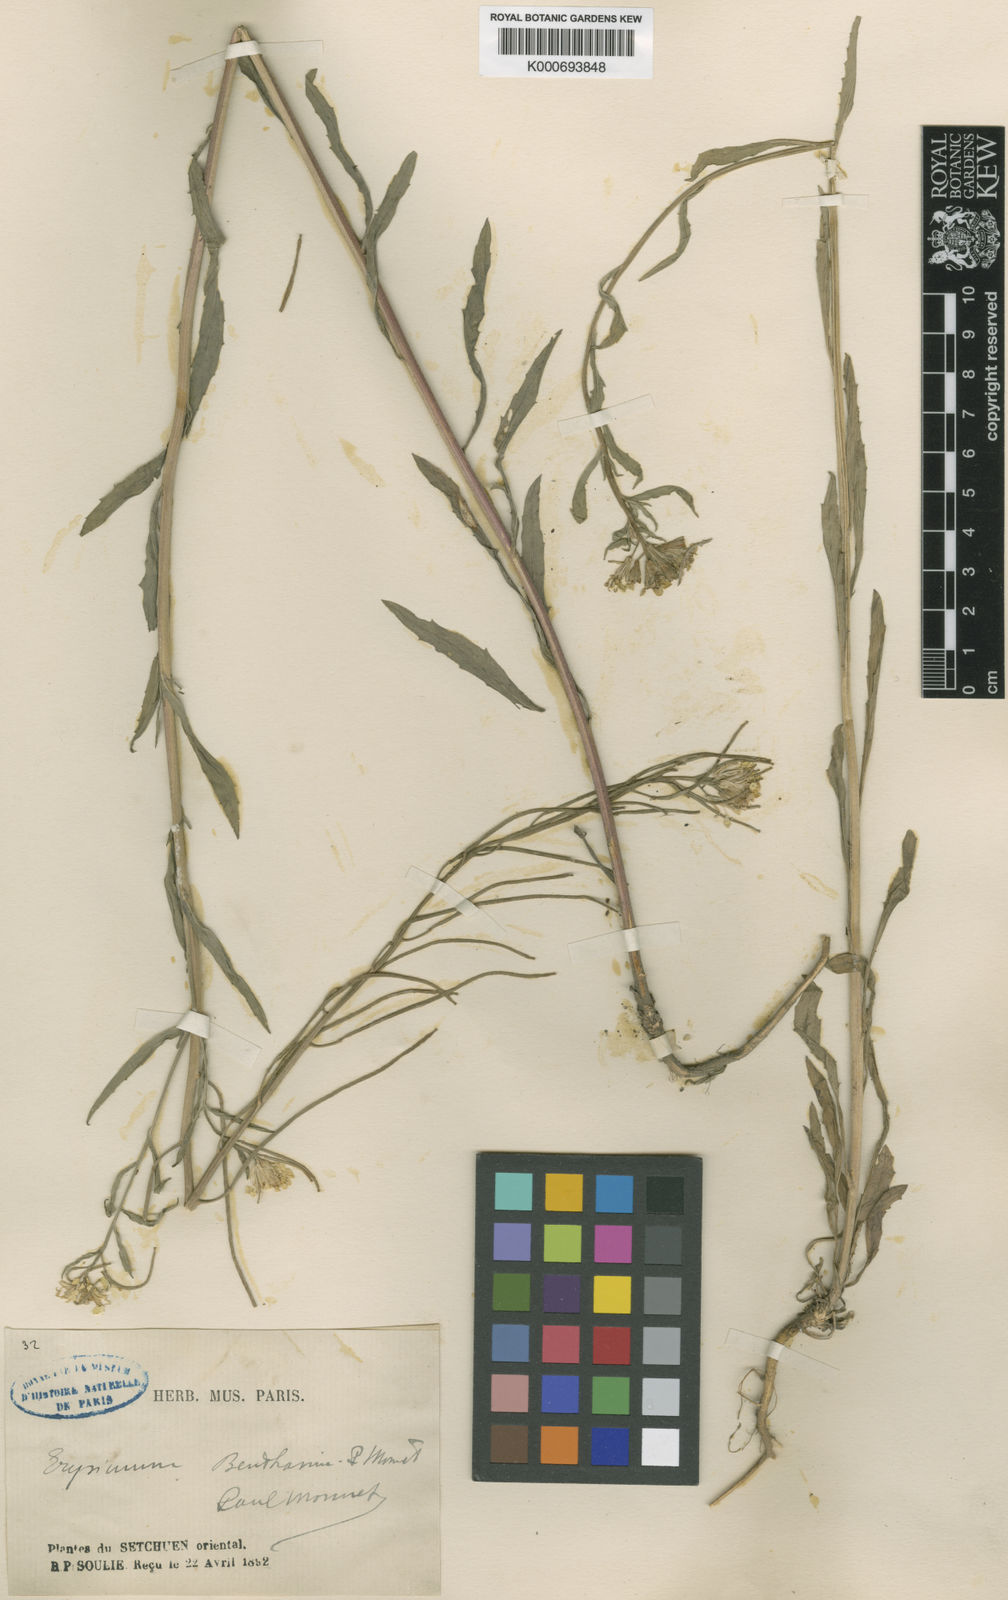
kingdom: Plantae
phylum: Tracheophyta
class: Magnoliopsida
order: Brassicales
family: Brassicaceae
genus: Erysimum
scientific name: Erysimum benthamii
